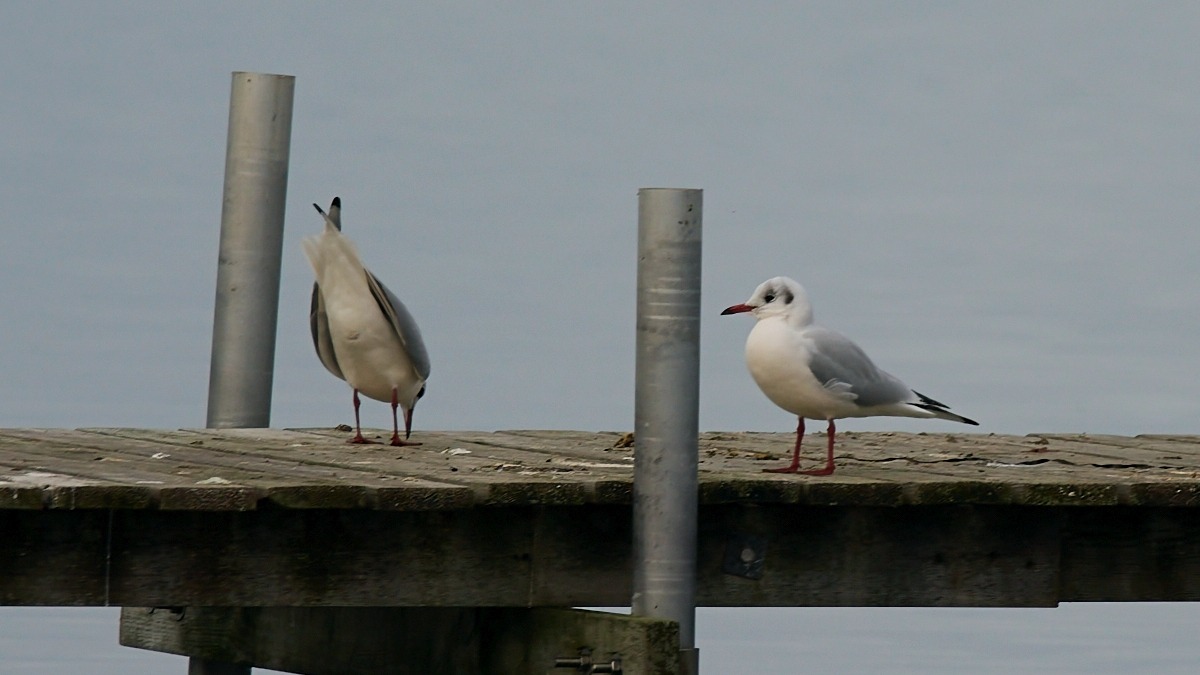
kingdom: Animalia
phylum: Chordata
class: Aves
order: Charadriiformes
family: Laridae
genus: Chroicocephalus
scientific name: Chroicocephalus ridibundus
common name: Hættemåge
